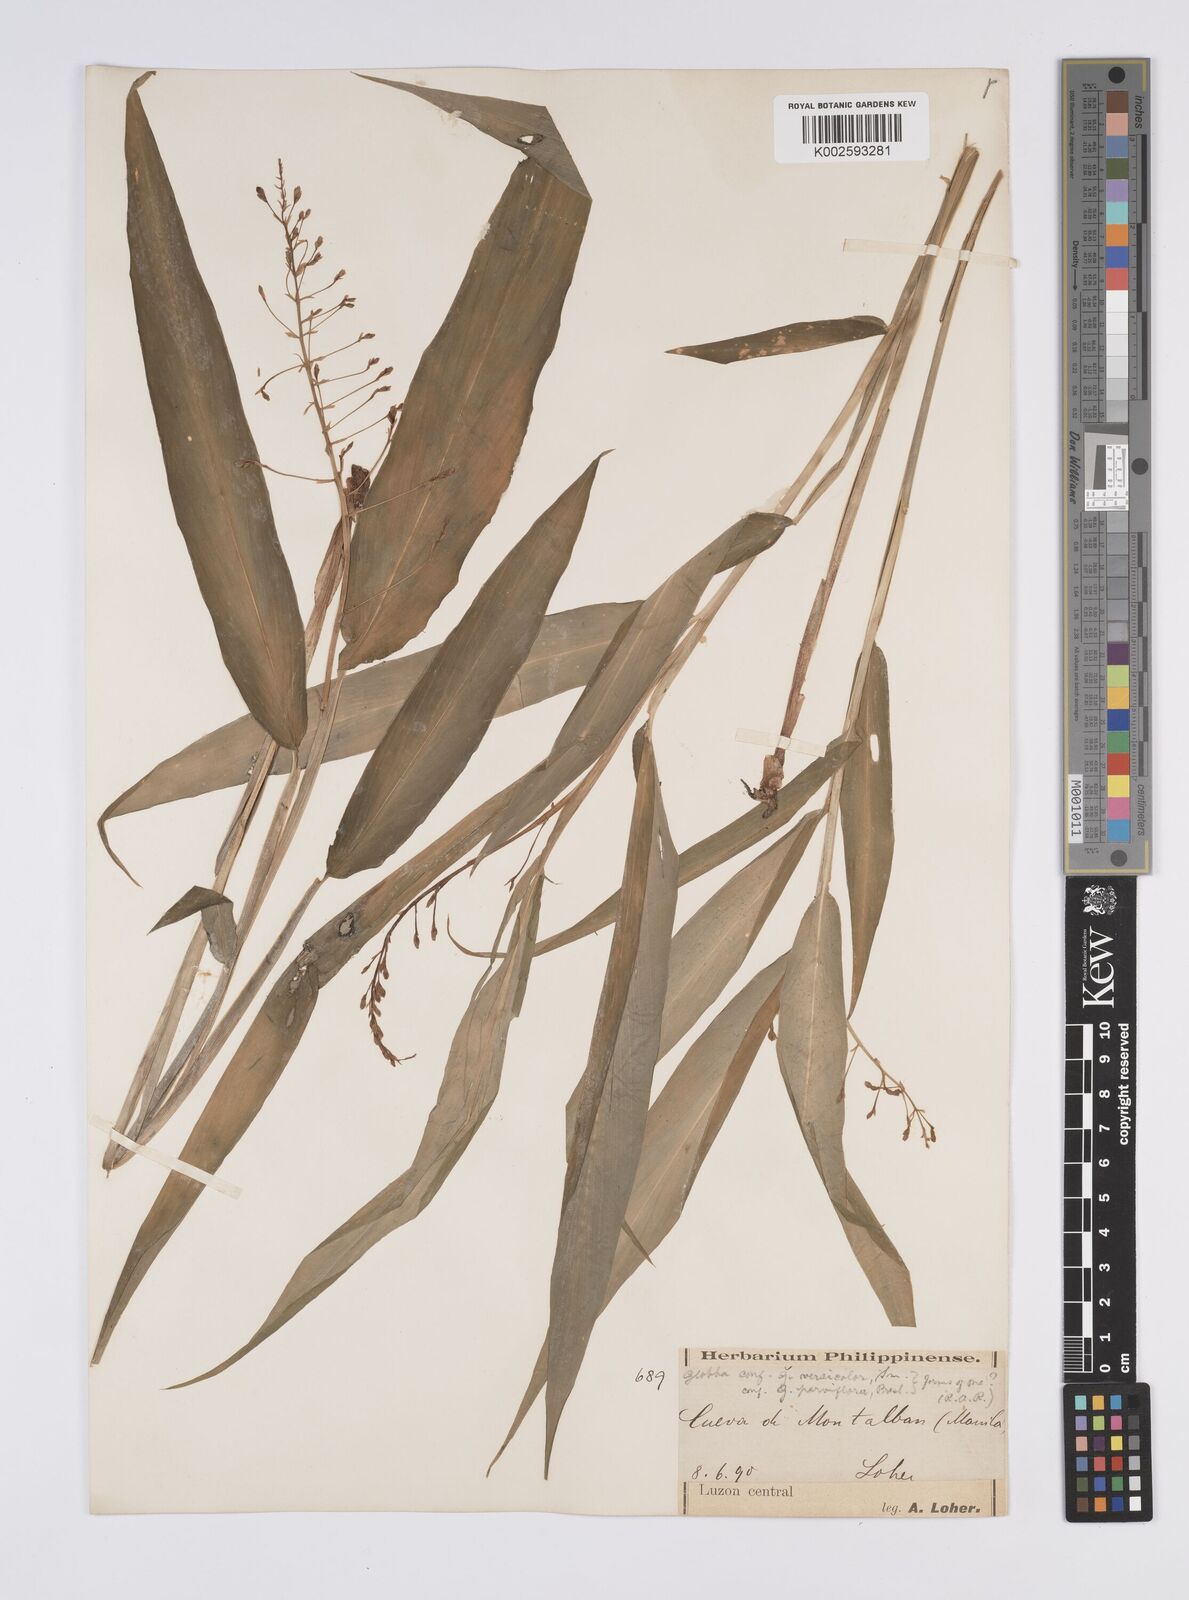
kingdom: Plantae
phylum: Tracheophyta
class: Liliopsida
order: Zingiberales
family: Zingiberaceae
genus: Globba
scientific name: Globba campsophylla
